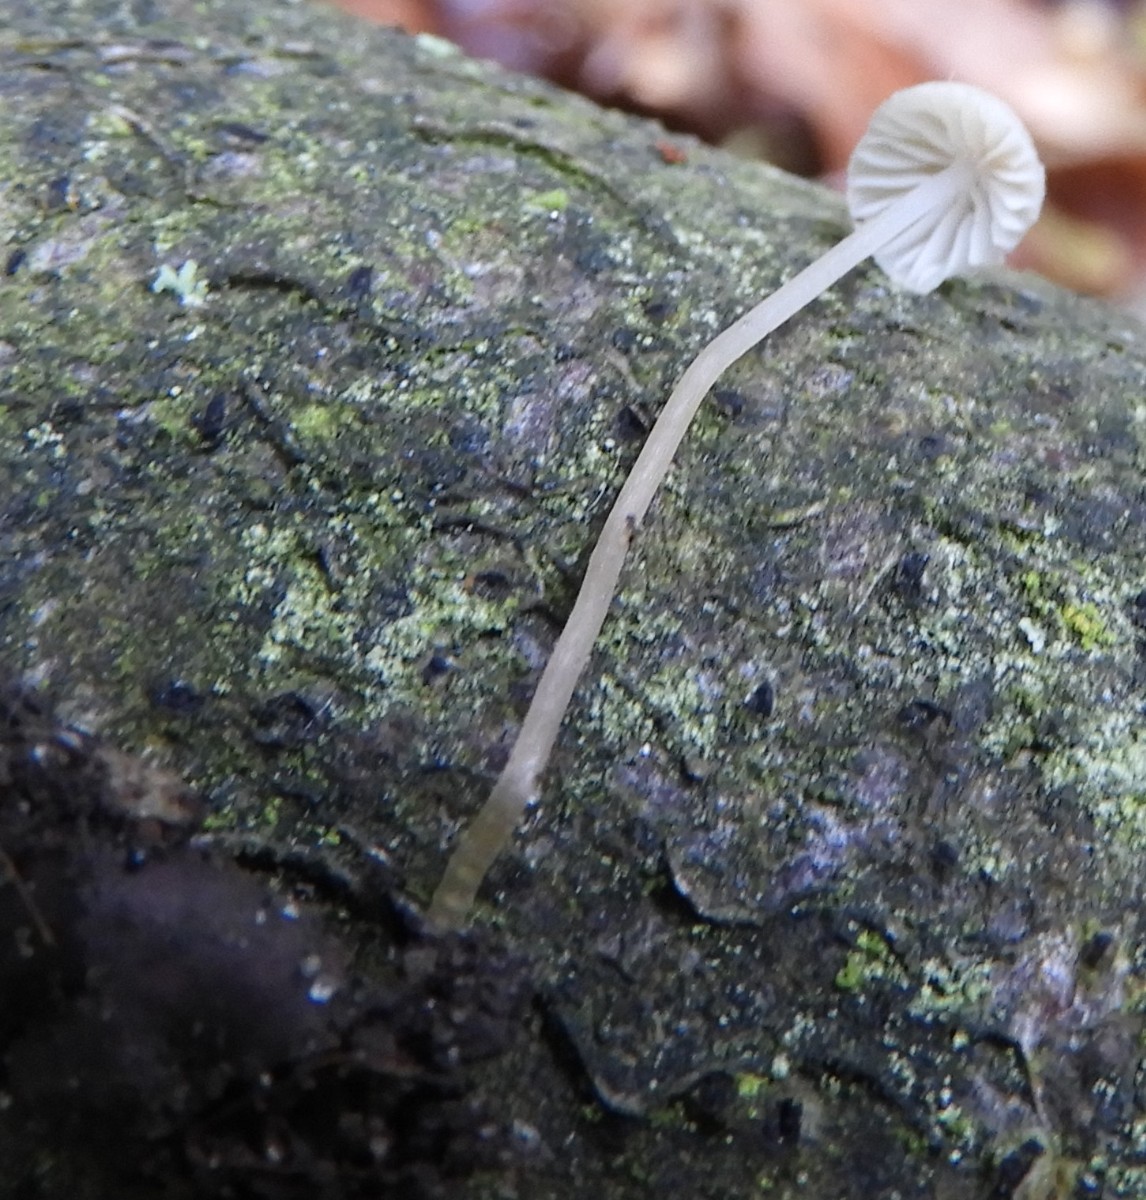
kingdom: Fungi
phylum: Basidiomycota
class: Agaricomycetes
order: Agaricales
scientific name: Agaricales
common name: champignonordenen
